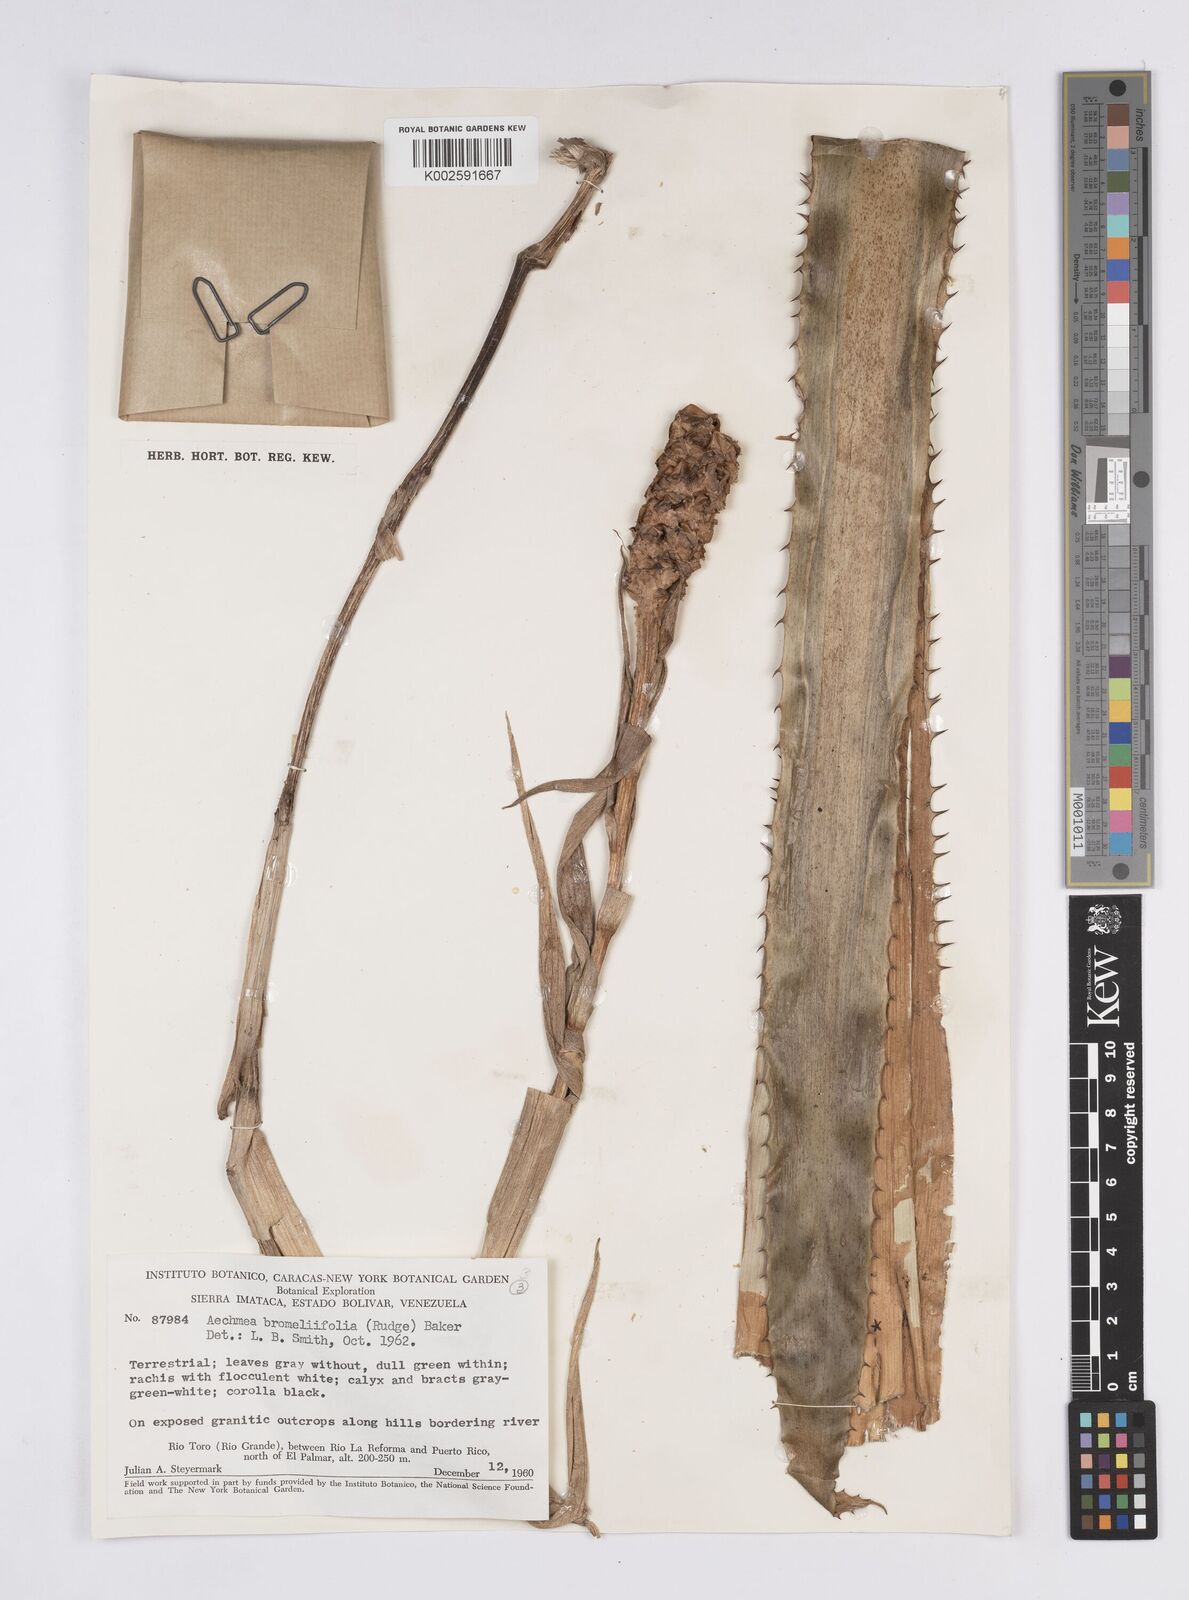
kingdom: Plantae
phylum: Tracheophyta
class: Liliopsida
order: Poales
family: Bromeliaceae
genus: Aechmea
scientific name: Aechmea bromeliifolia
